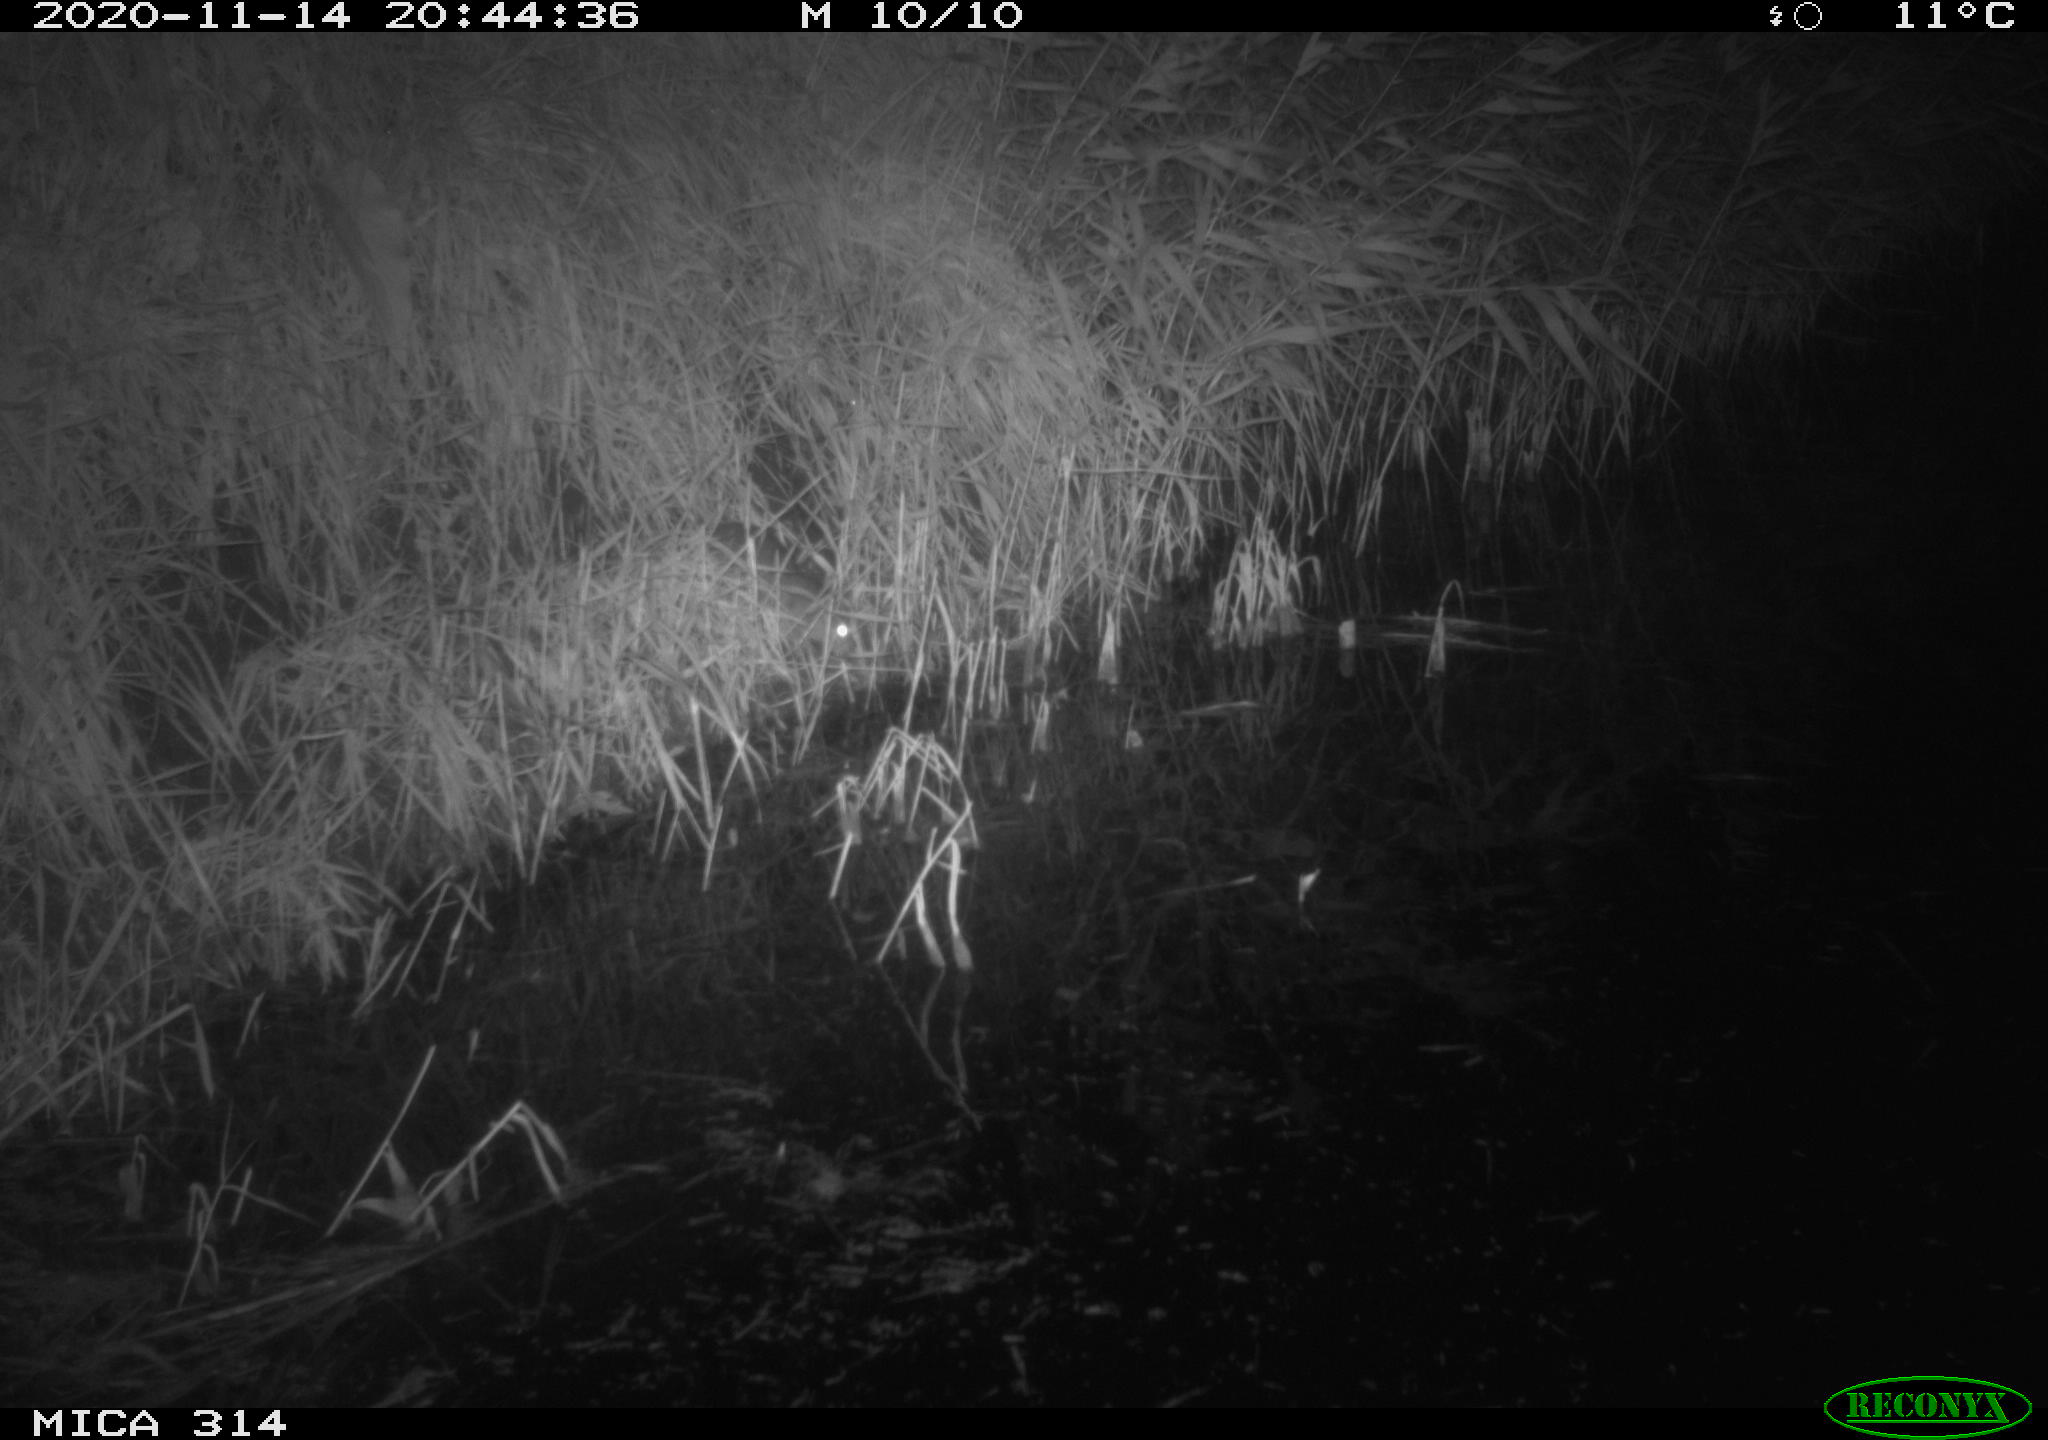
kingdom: Animalia
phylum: Chordata
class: Mammalia
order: Rodentia
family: Muridae
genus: Rattus
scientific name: Rattus norvegicus
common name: Brown rat
